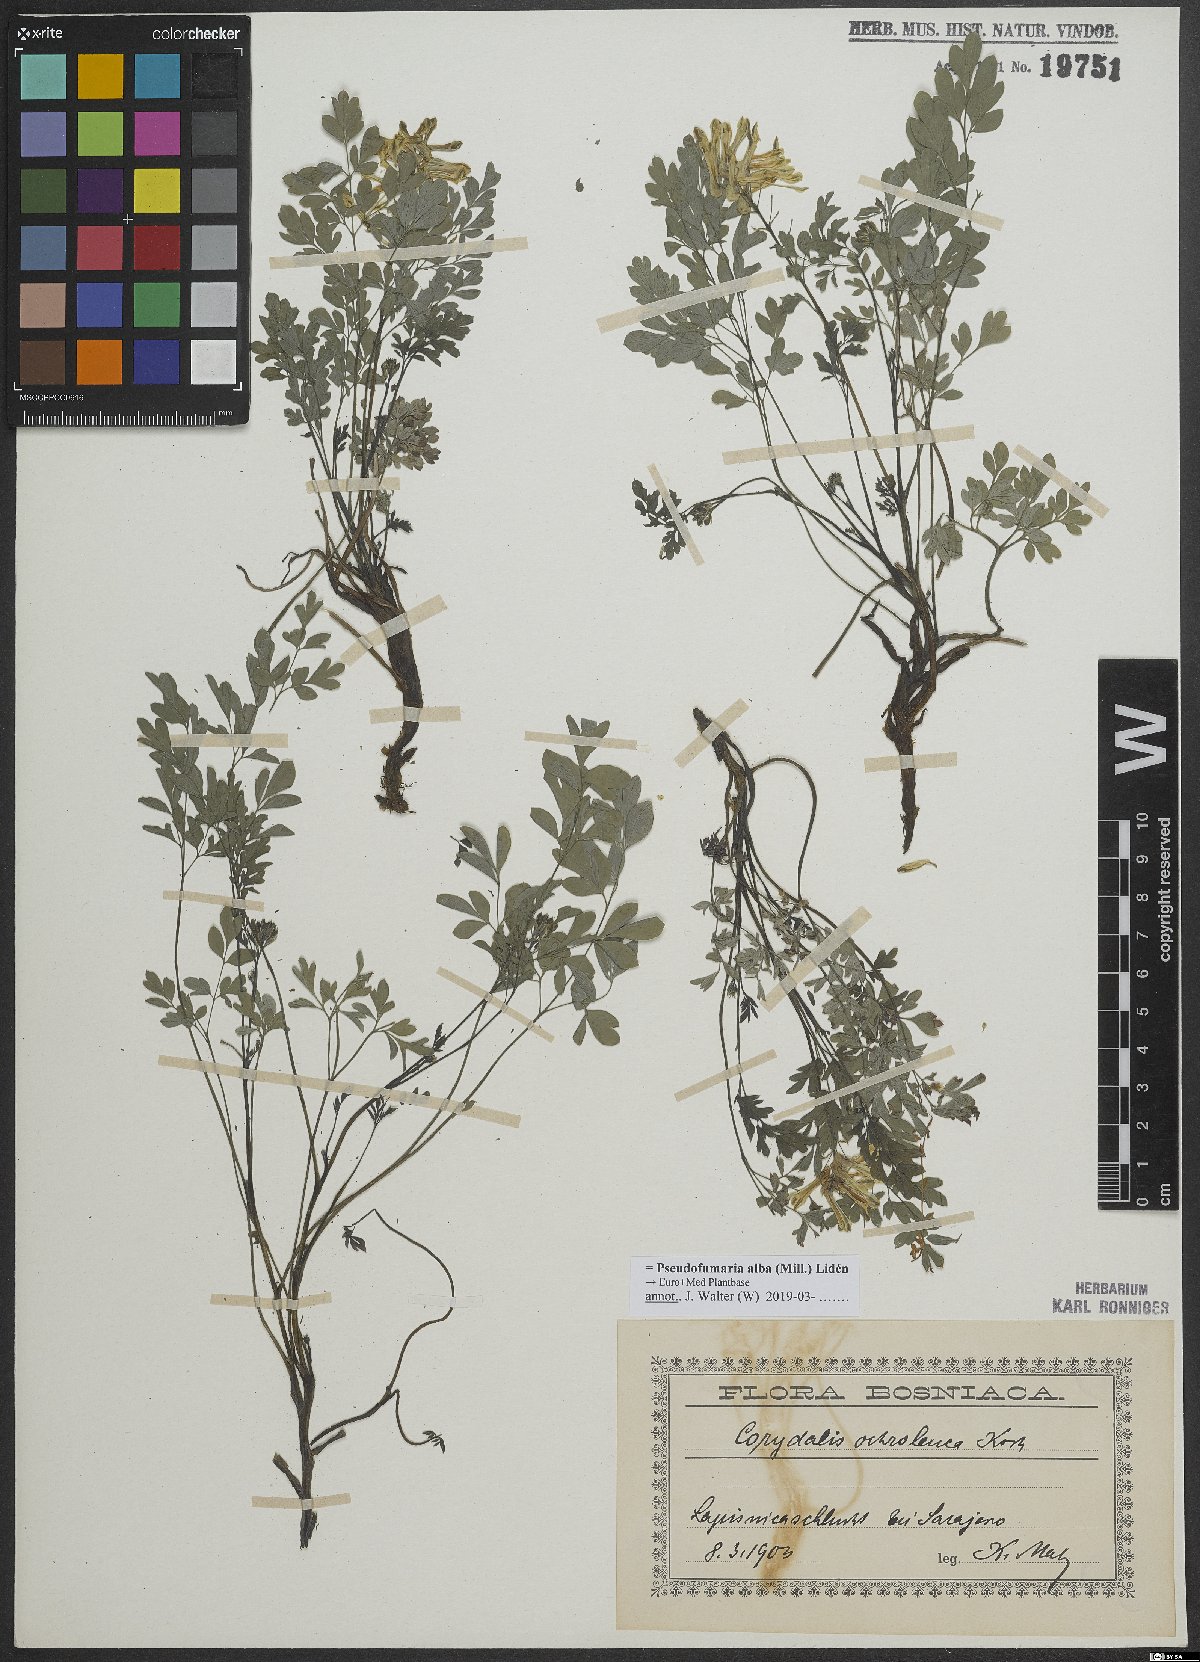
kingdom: Plantae
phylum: Tracheophyta
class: Magnoliopsida
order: Ranunculales
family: Papaveraceae
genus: Pseudofumaria
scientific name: Pseudofumaria alba
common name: Pale corydalis
